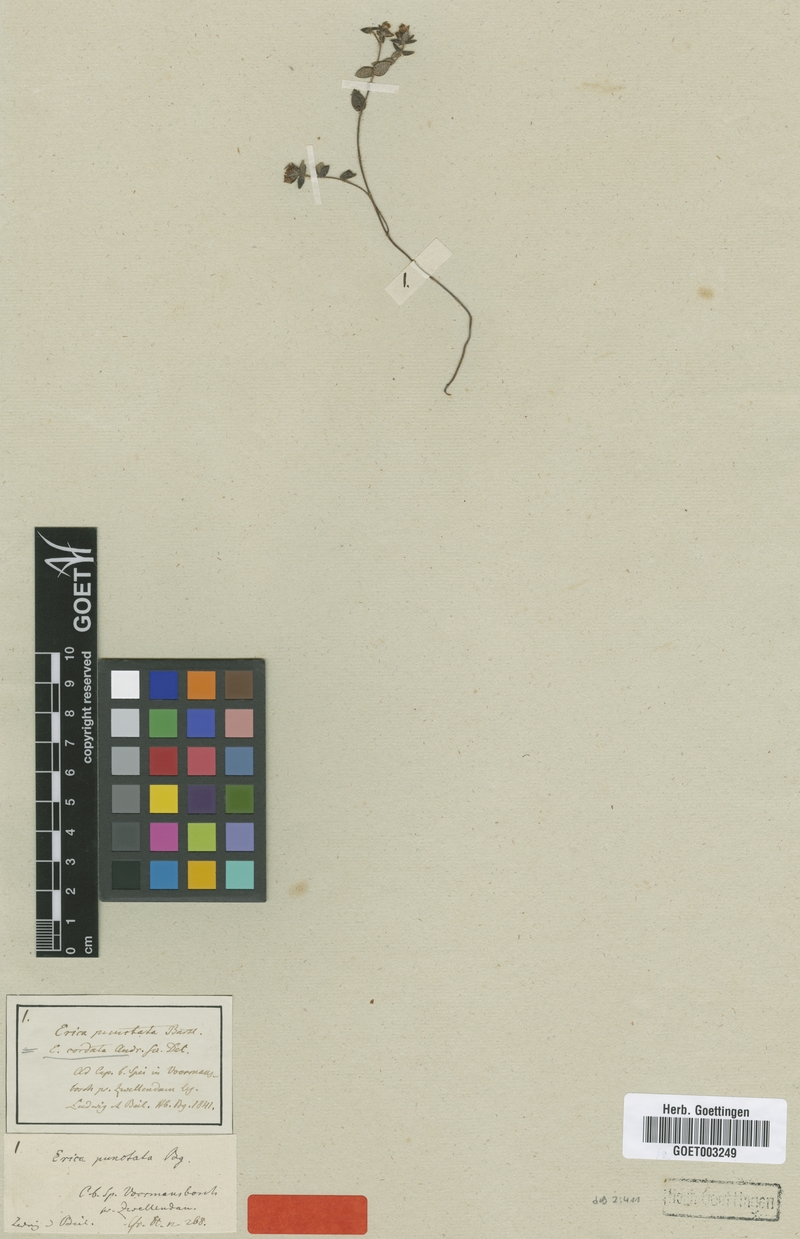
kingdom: Plantae
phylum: Tracheophyta
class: Magnoliopsida
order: Ericales
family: Ericaceae
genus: Erica
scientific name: Erica cordata
